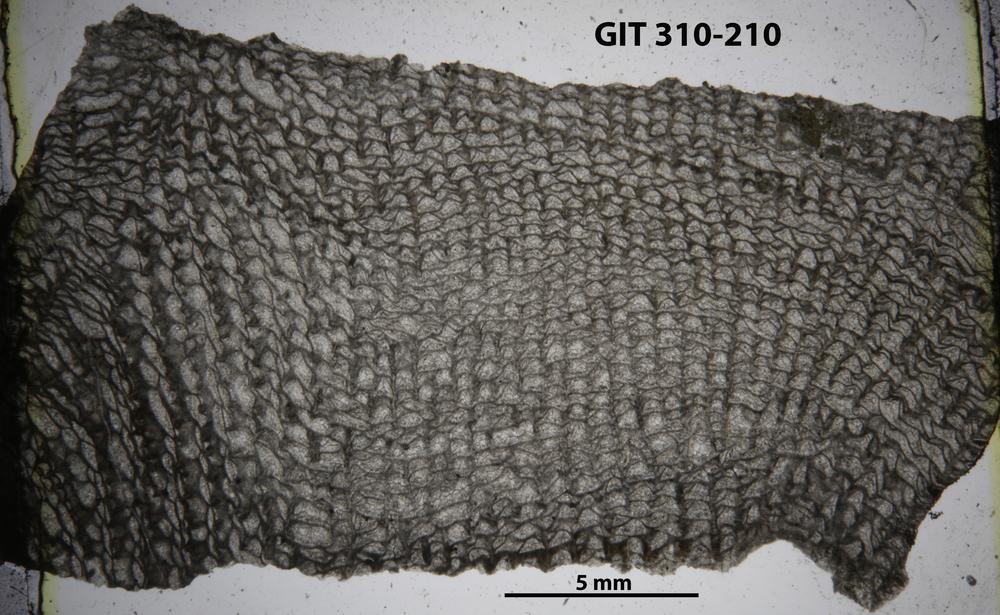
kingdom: Animalia
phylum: Porifera
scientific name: Porifera
